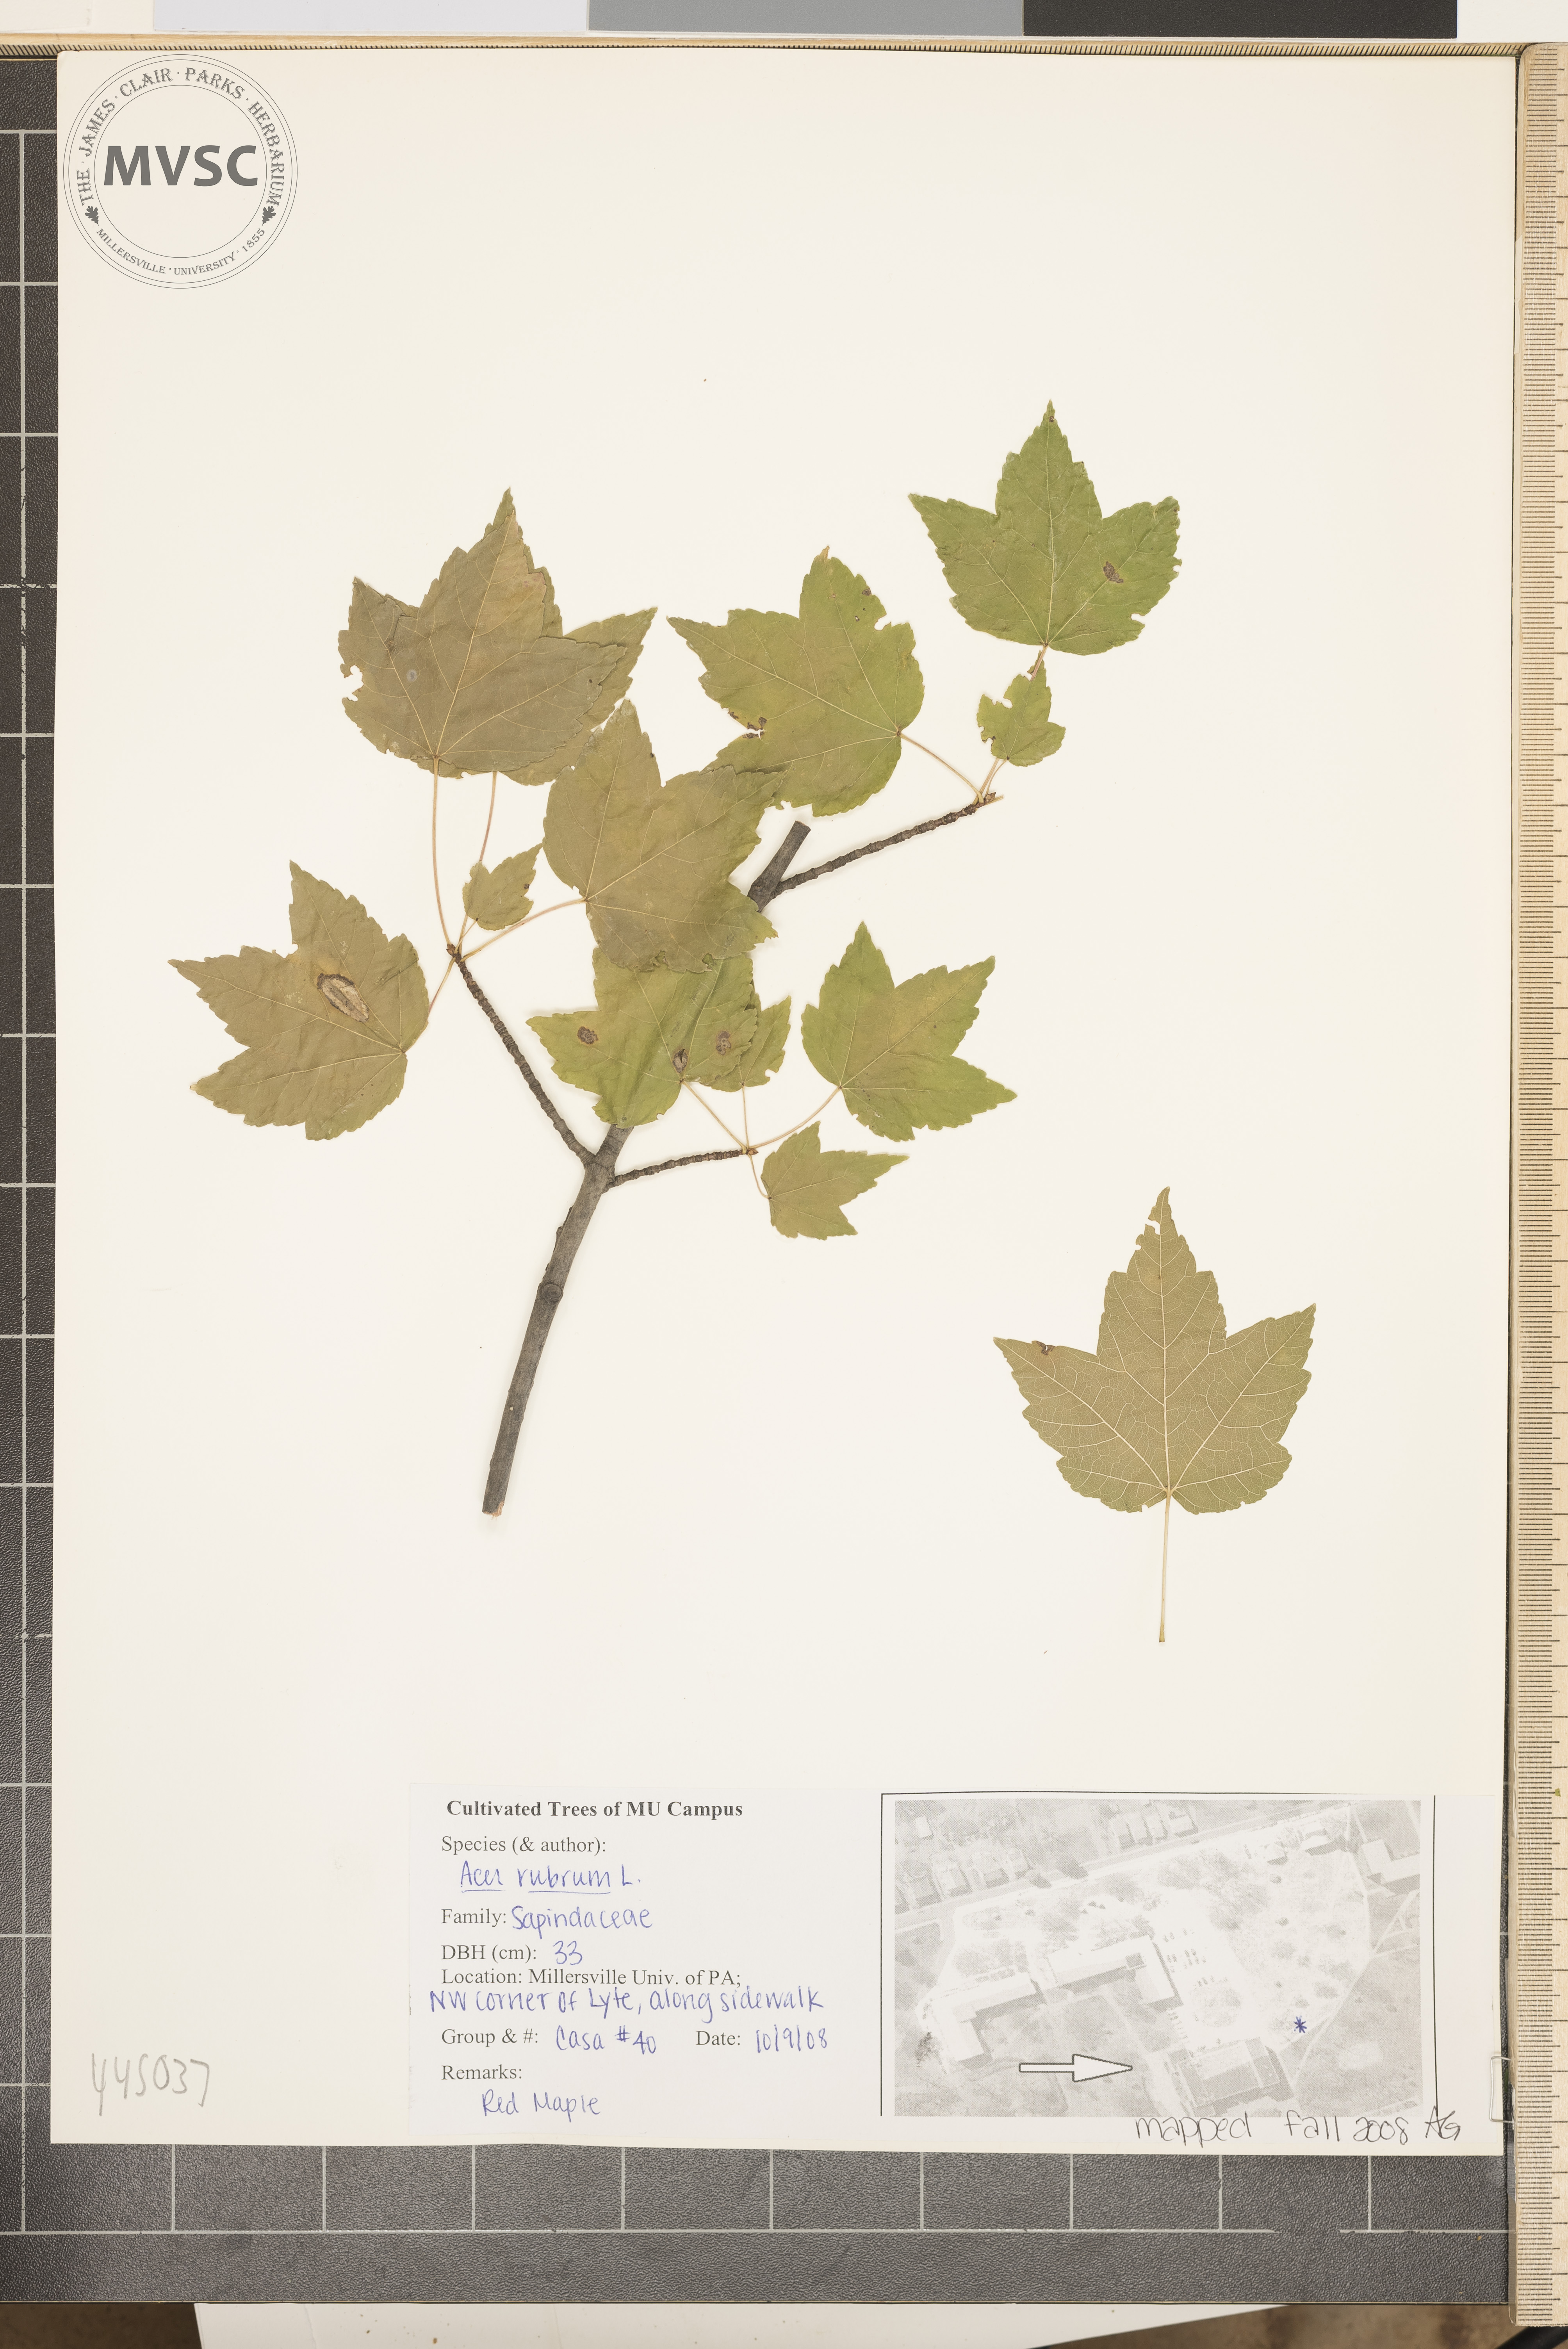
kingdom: Plantae
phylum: Tracheophyta
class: Magnoliopsida
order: Sapindales
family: Sapindaceae
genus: Acer
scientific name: Acer rubrum
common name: Red maple
